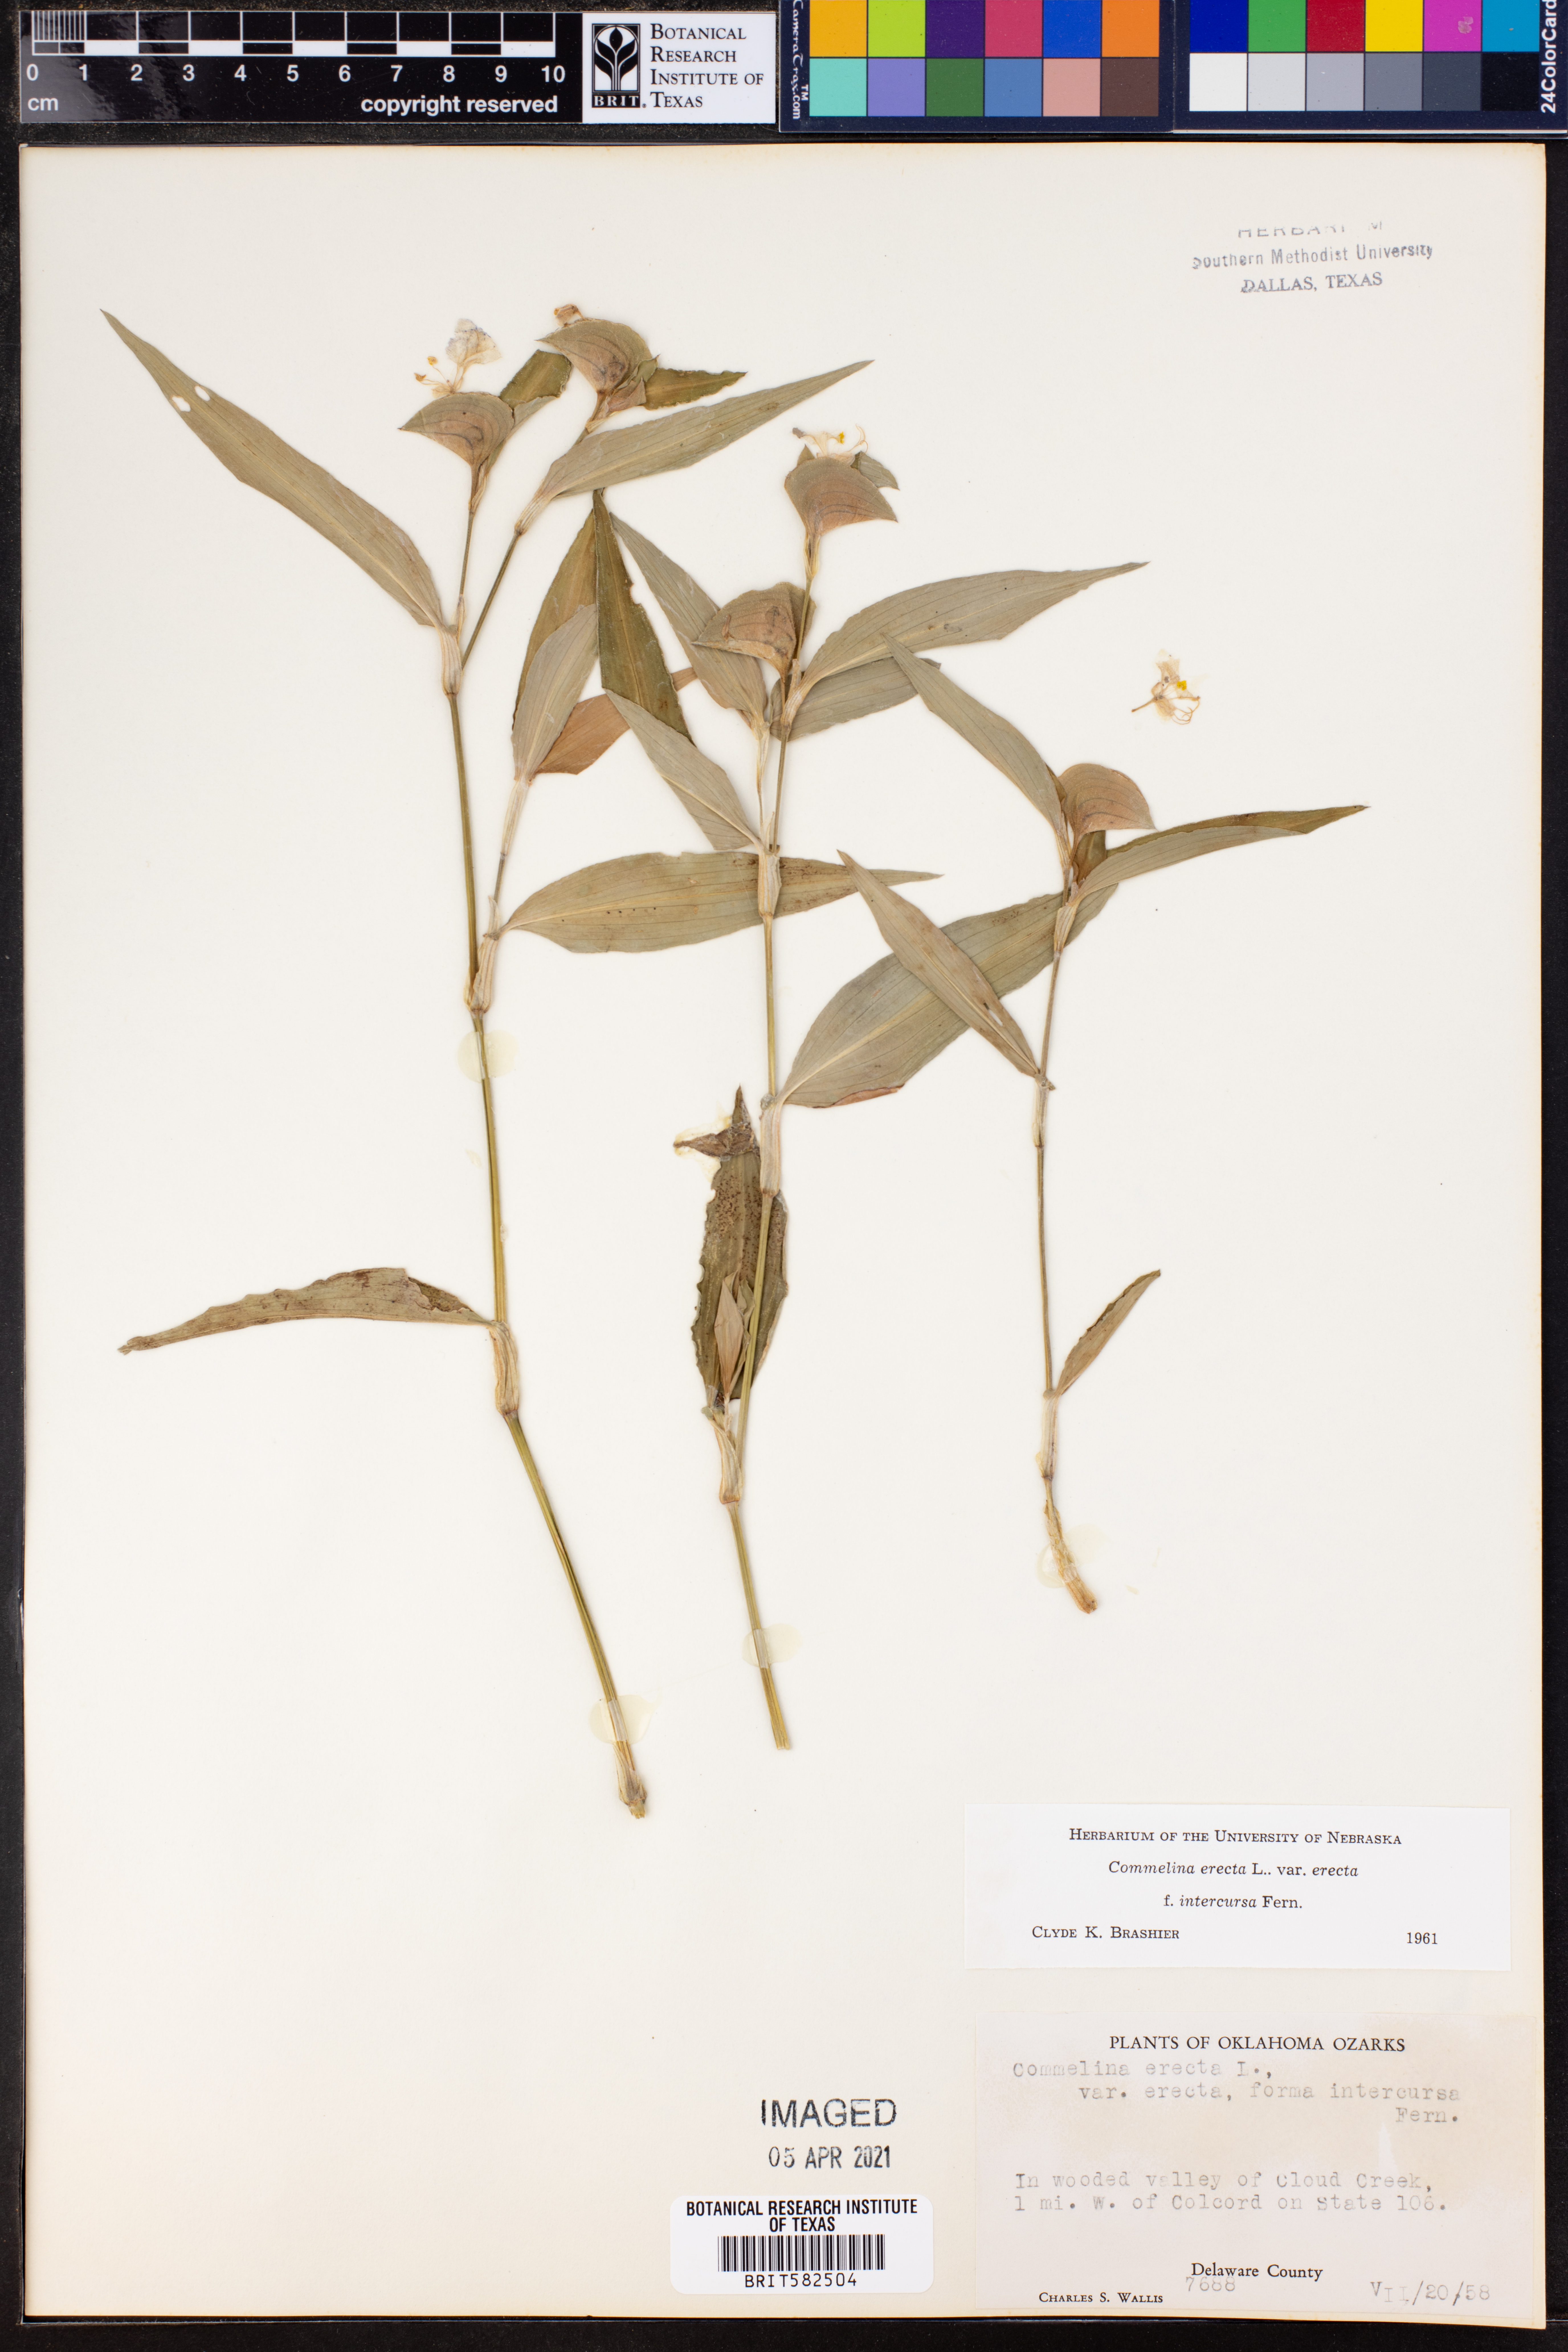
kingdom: Plantae
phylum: Tracheophyta
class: Liliopsida
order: Commelinales
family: Commelinaceae
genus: Commelina
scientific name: Commelina erecta
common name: Blousel blommetjie
